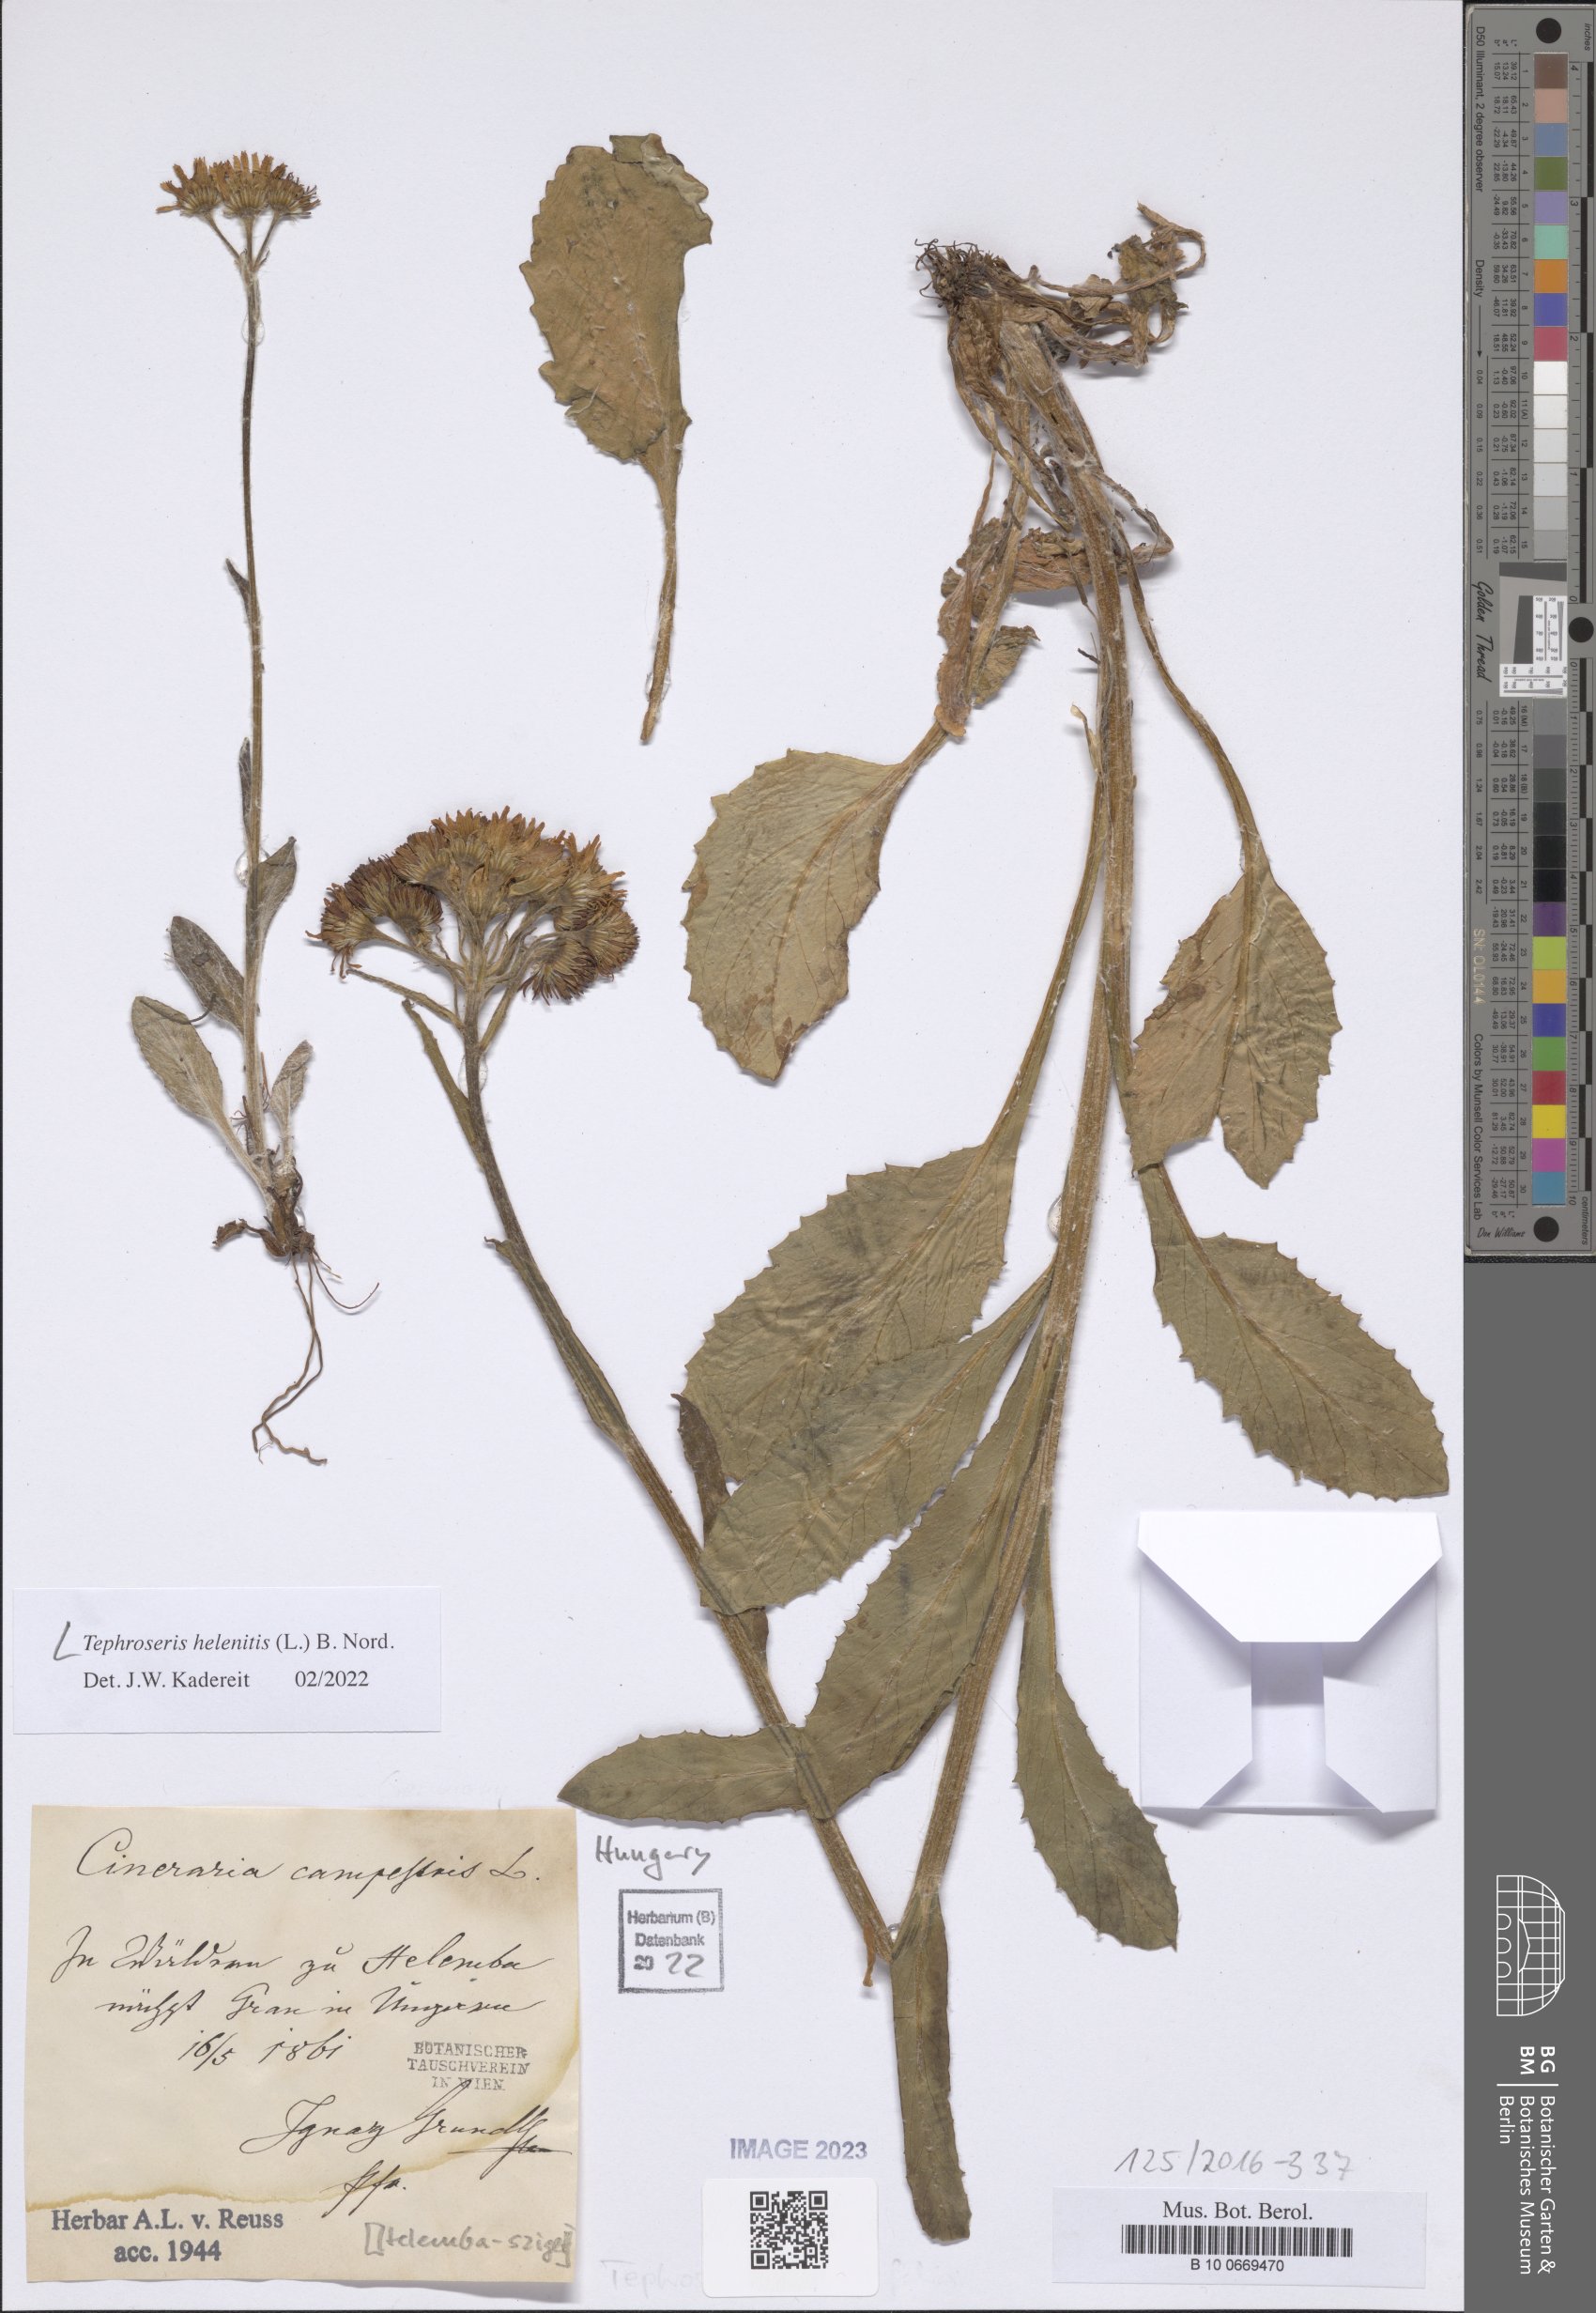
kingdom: Plantae
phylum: Tracheophyta
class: Magnoliopsida
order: Asterales
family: Asteraceae
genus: Tephroseris
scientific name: Tephroseris helenitis
